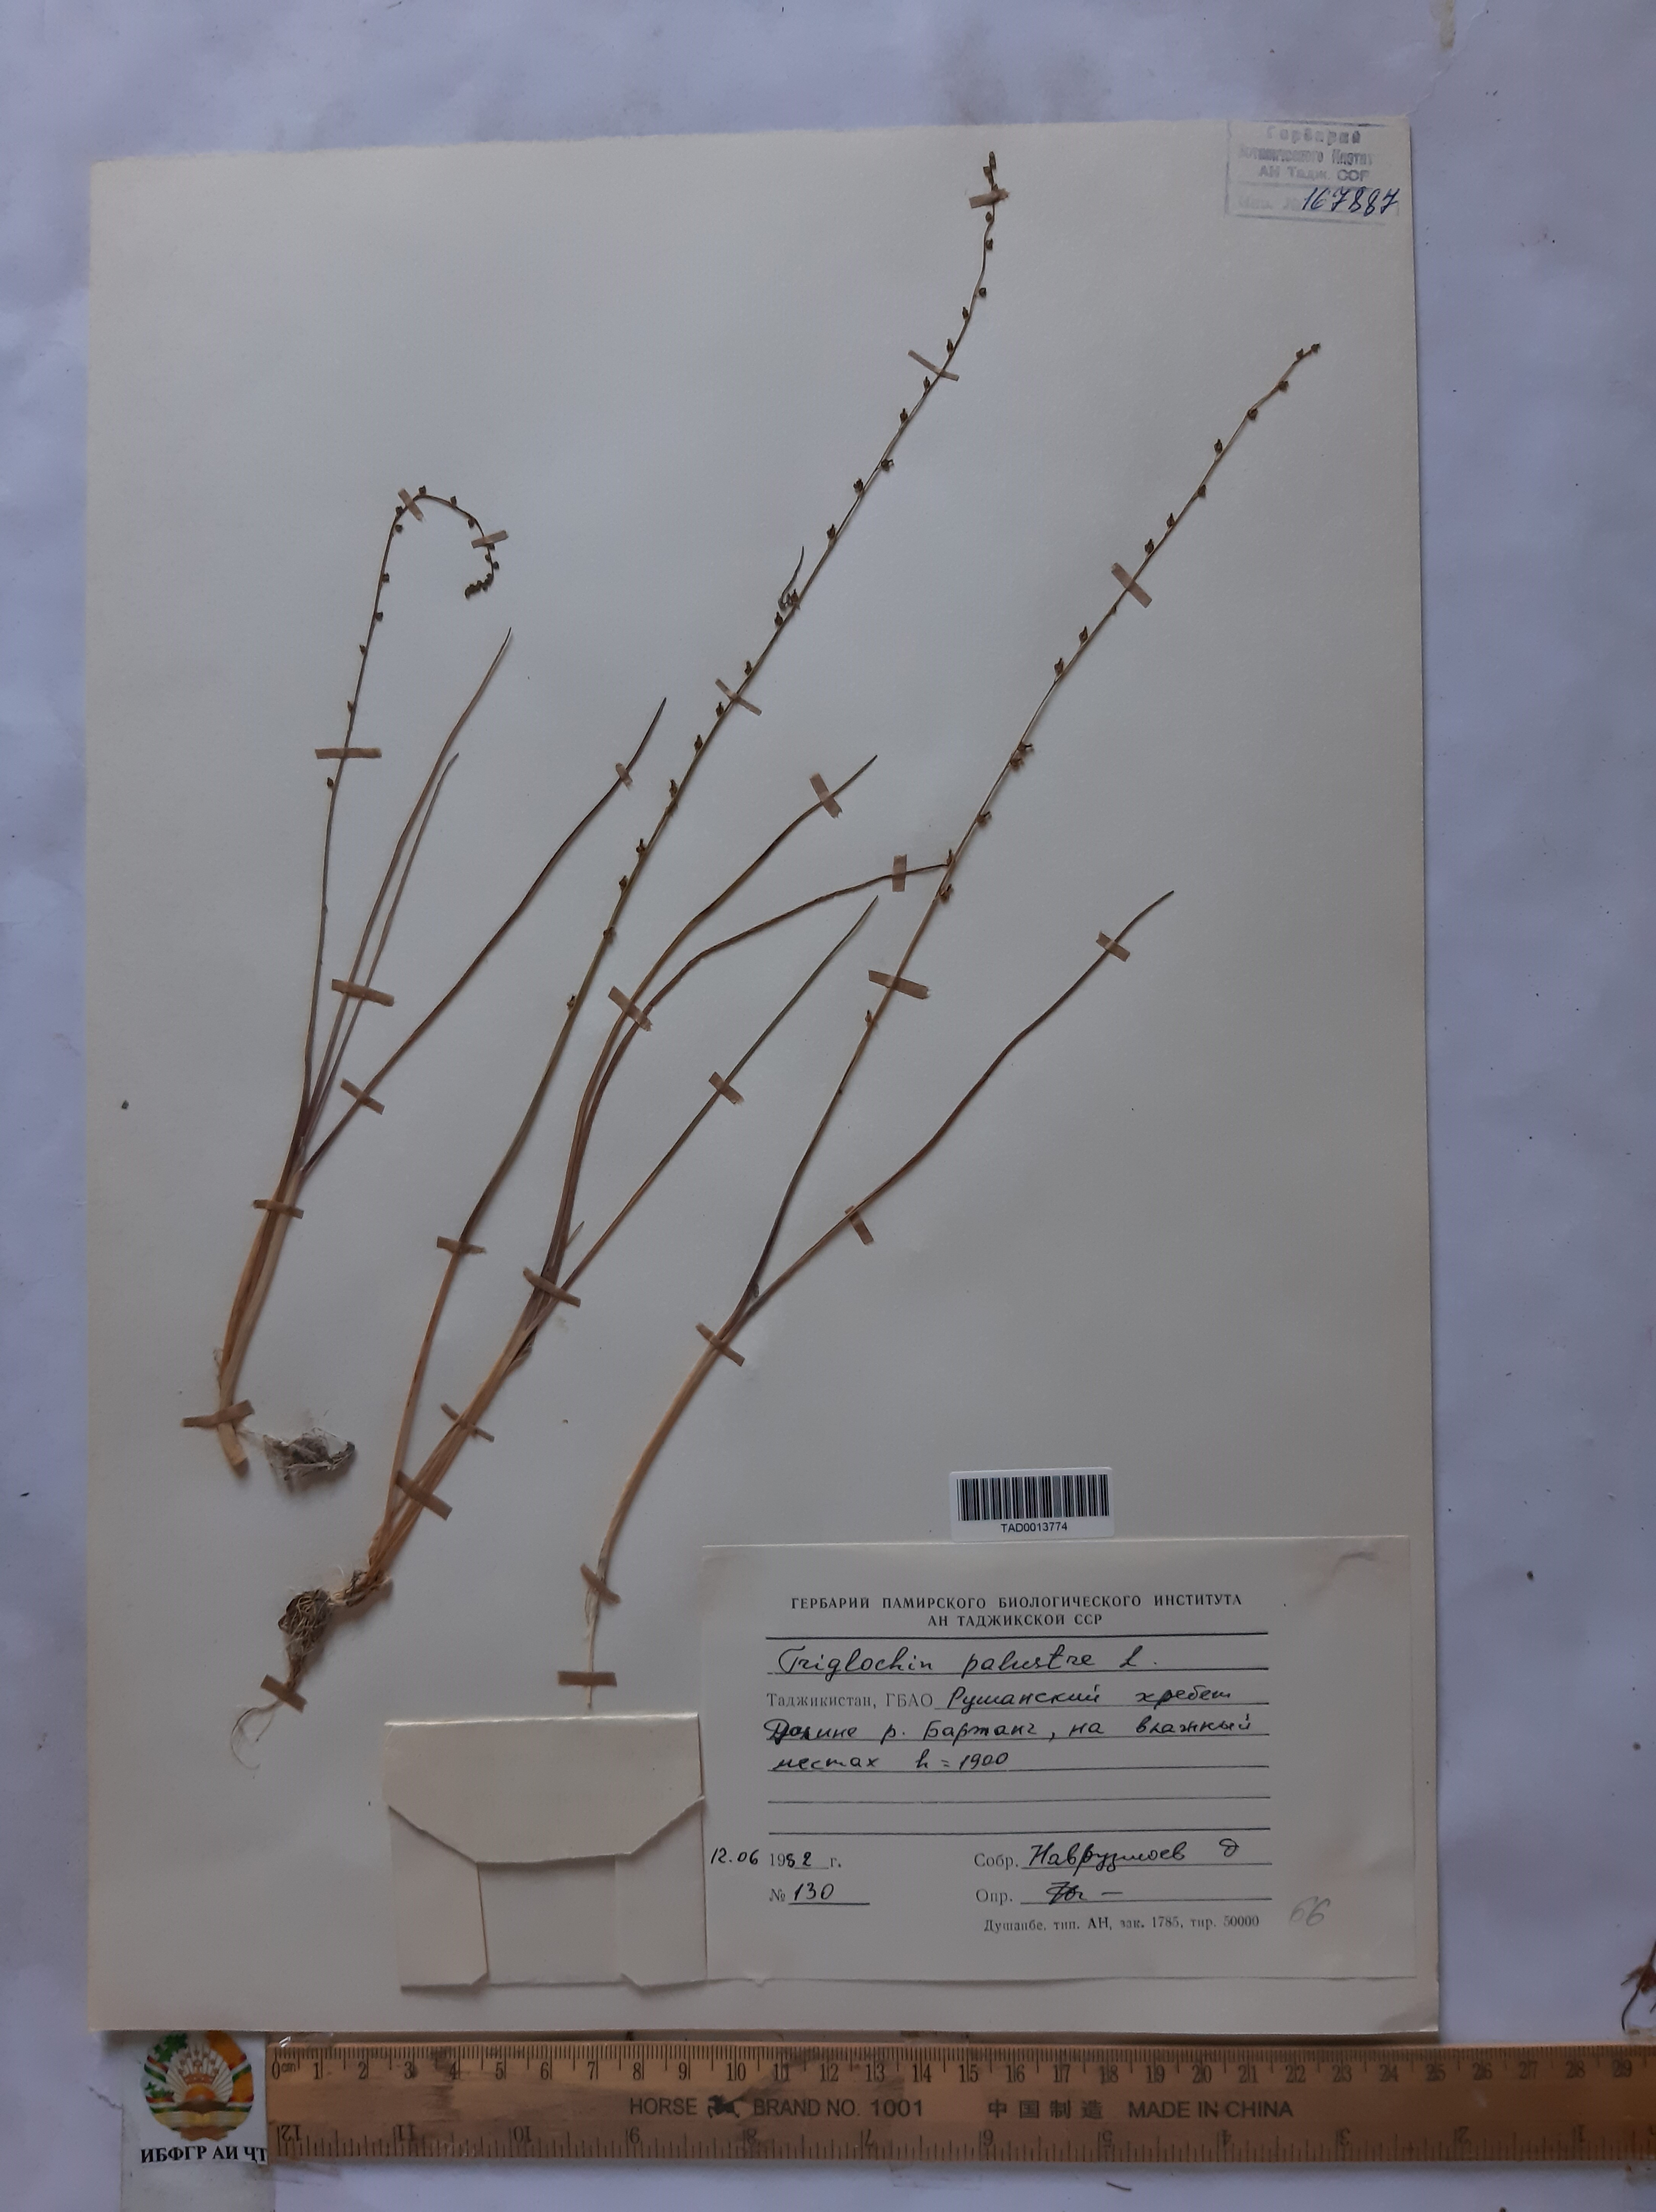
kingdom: Plantae
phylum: Tracheophyta
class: Liliopsida
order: Alismatales
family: Juncaginaceae
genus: Triglochin
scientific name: Triglochin palustris
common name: Marsh arrowgrass
